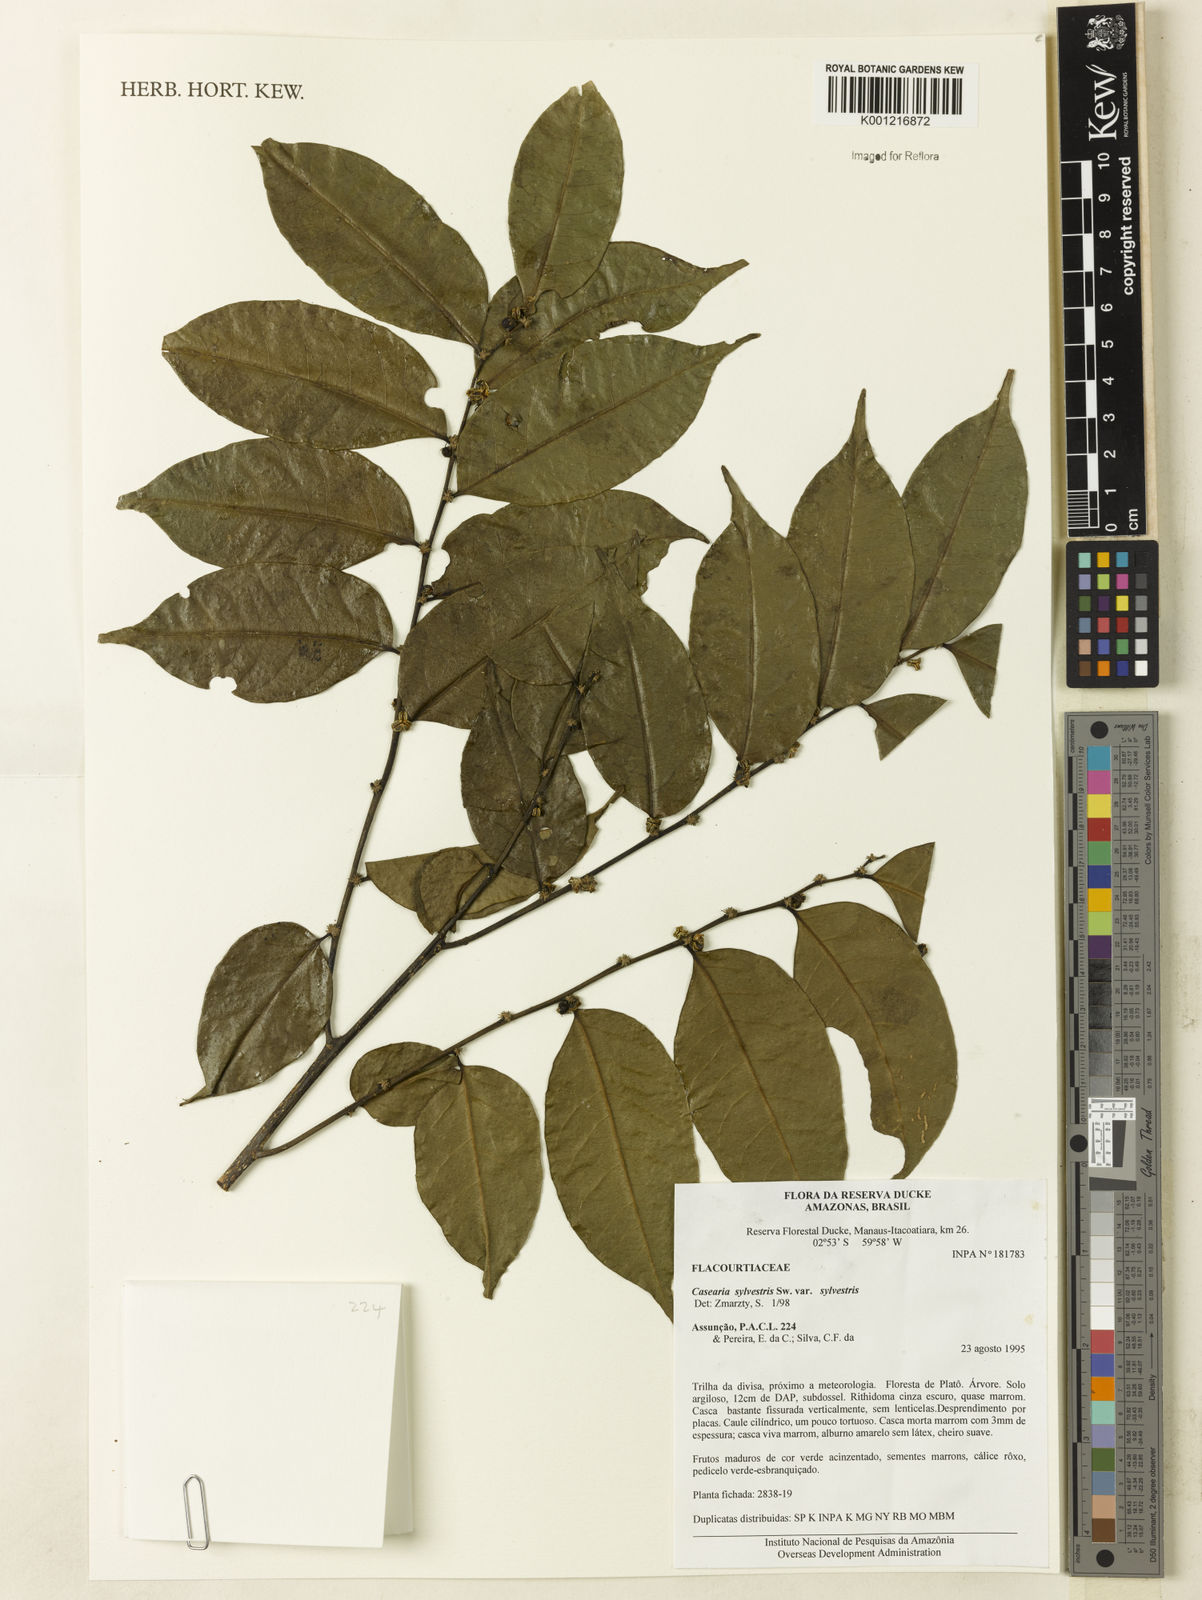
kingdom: Plantae
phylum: Tracheophyta
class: Magnoliopsida
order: Malpighiales
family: Salicaceae
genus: Casearia
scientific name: Casearia sylvestris
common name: Wild sage
